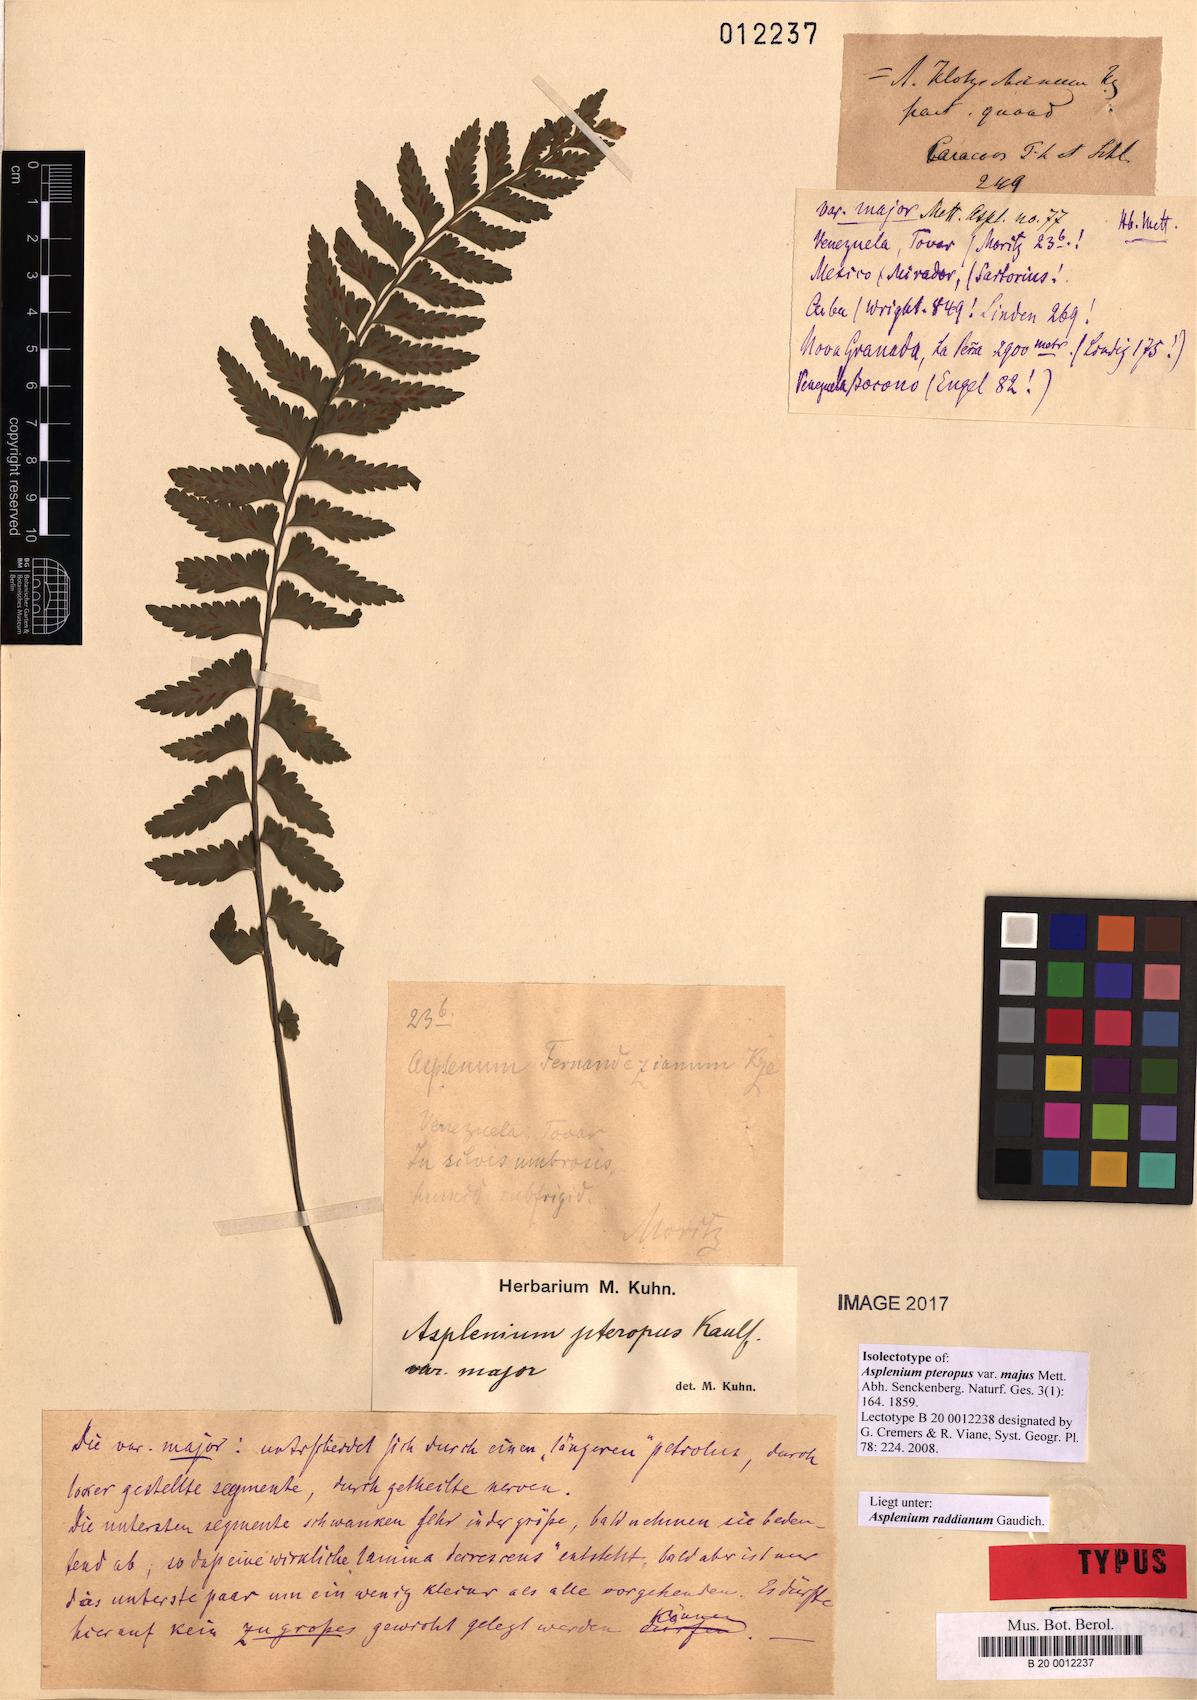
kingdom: Plantae
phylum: Tracheophyta
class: Polypodiopsida
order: Polypodiales
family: Aspleniaceae
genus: Asplenium
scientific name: Asplenium raddianum
